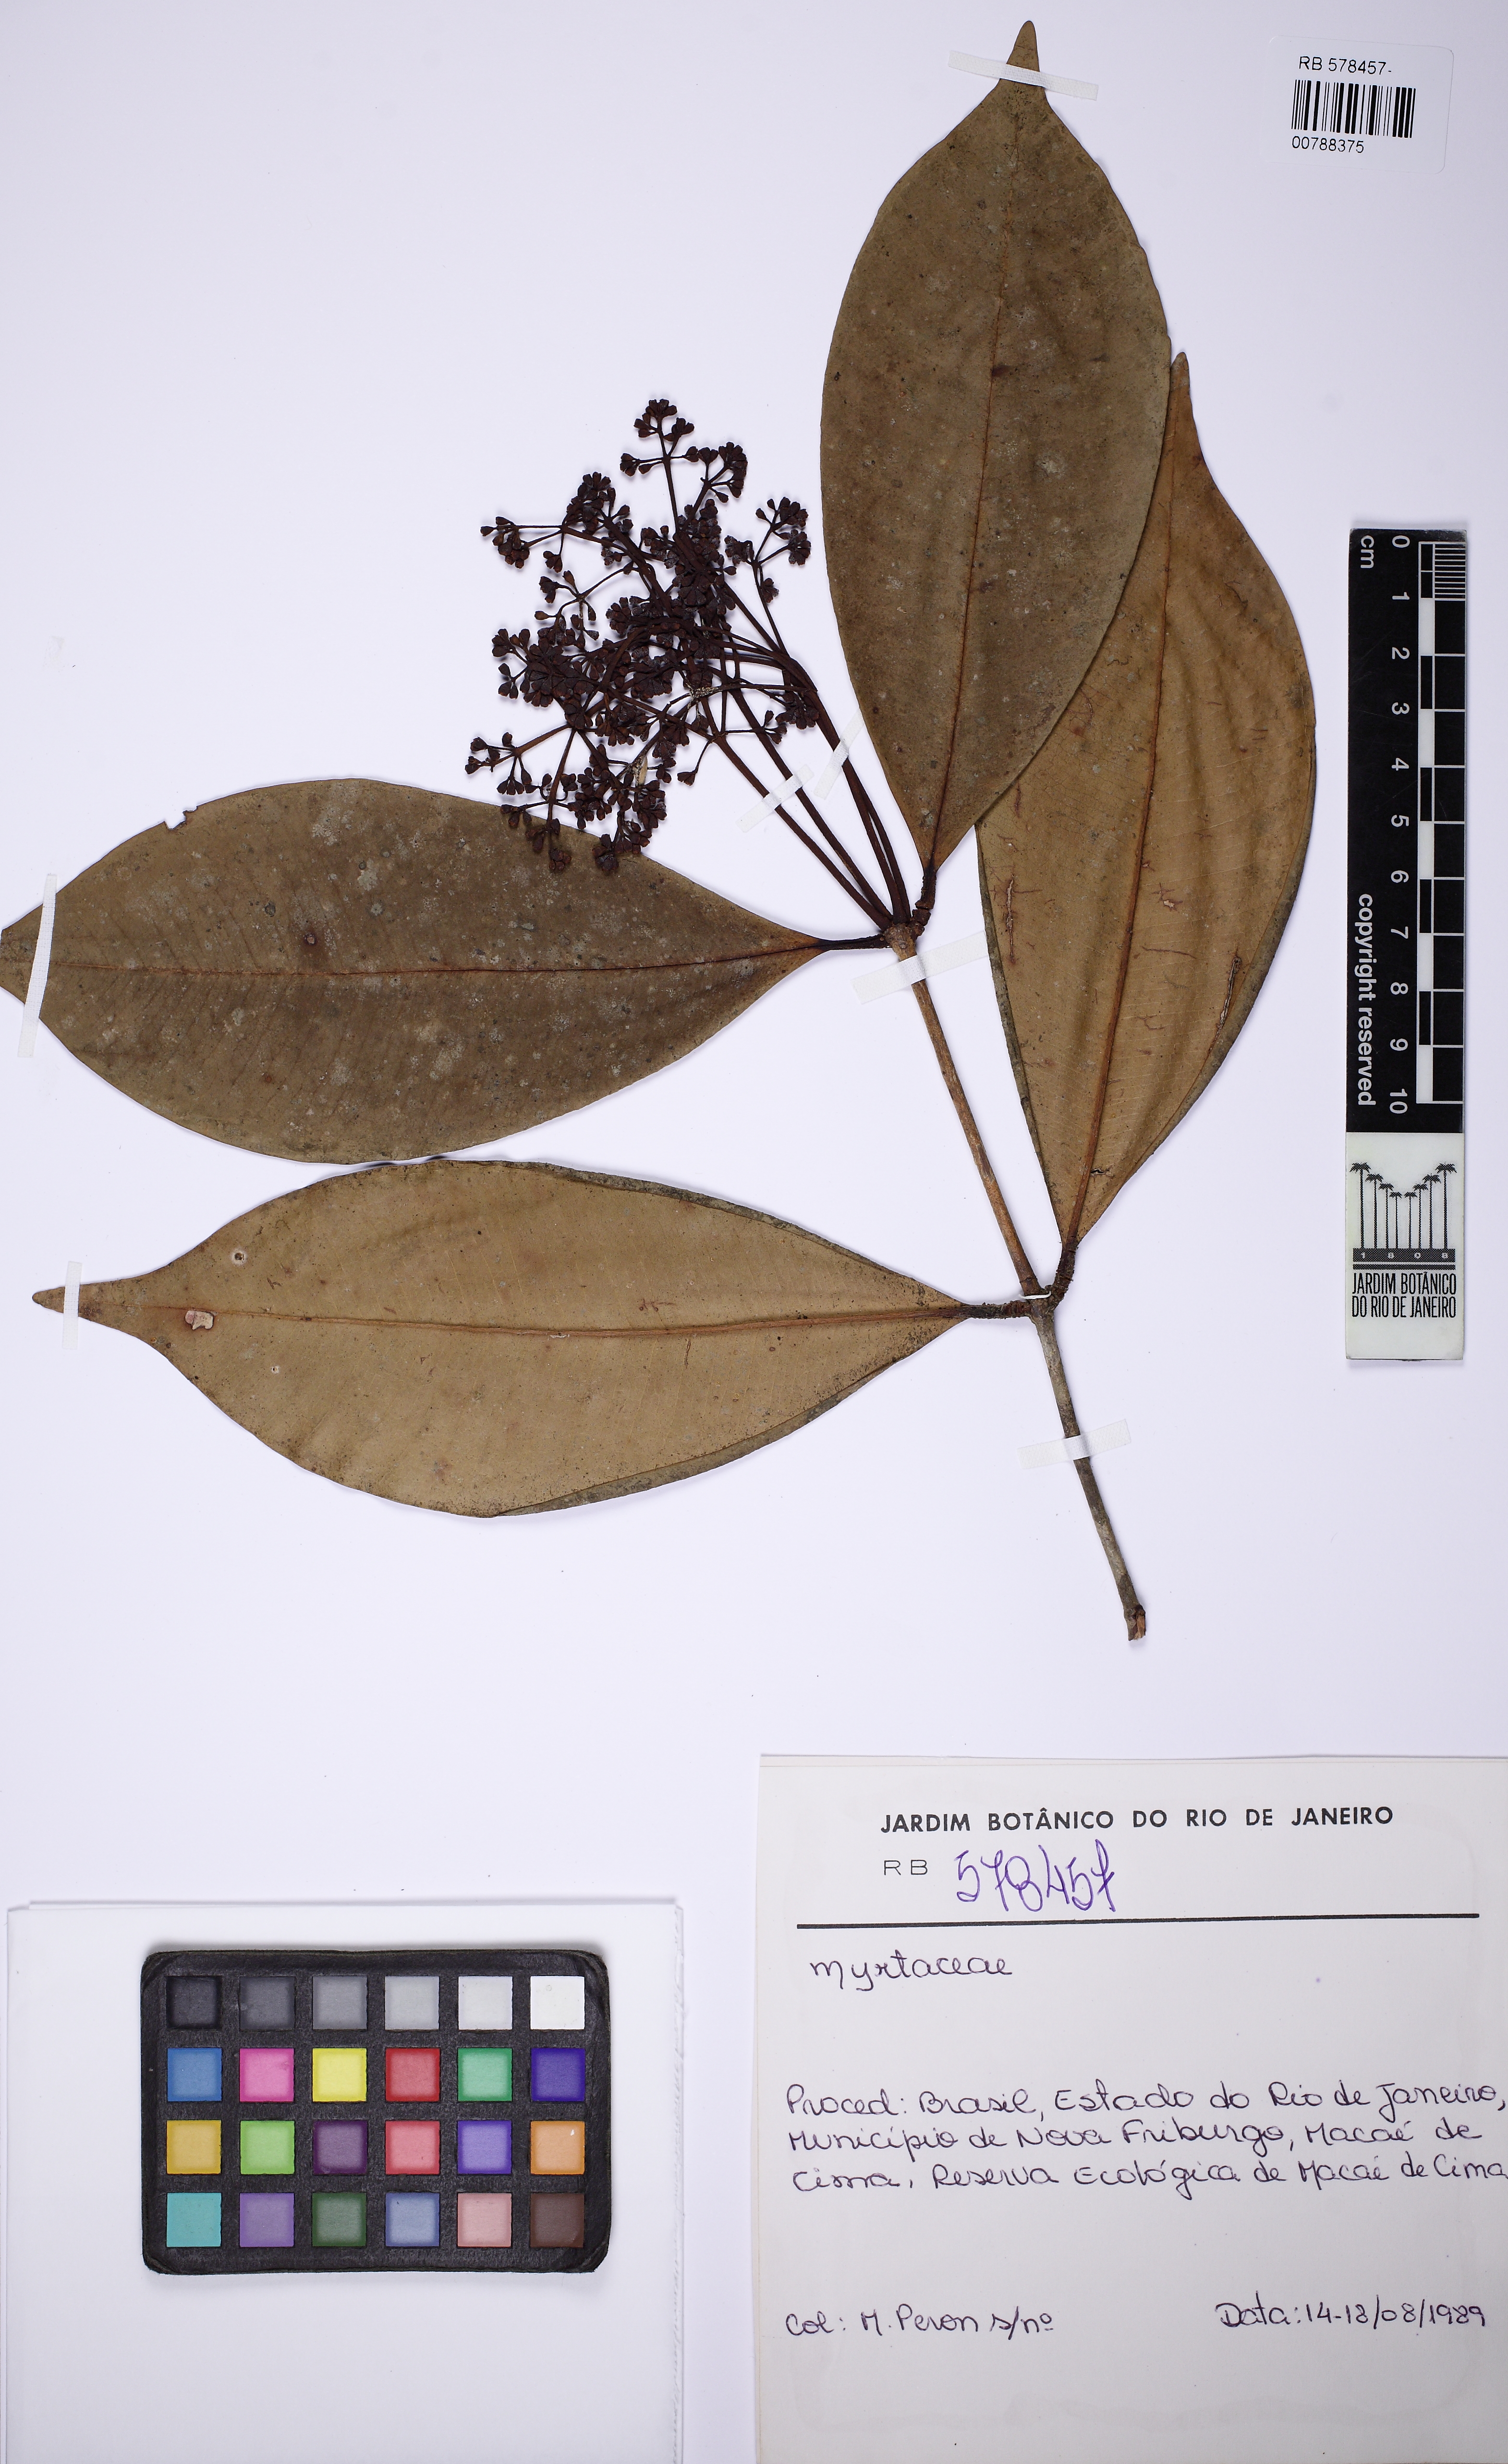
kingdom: Plantae
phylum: Tracheophyta
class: Magnoliopsida
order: Myrtales
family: Myrtaceae
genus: Myrcia
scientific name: Myrcia bicolor
